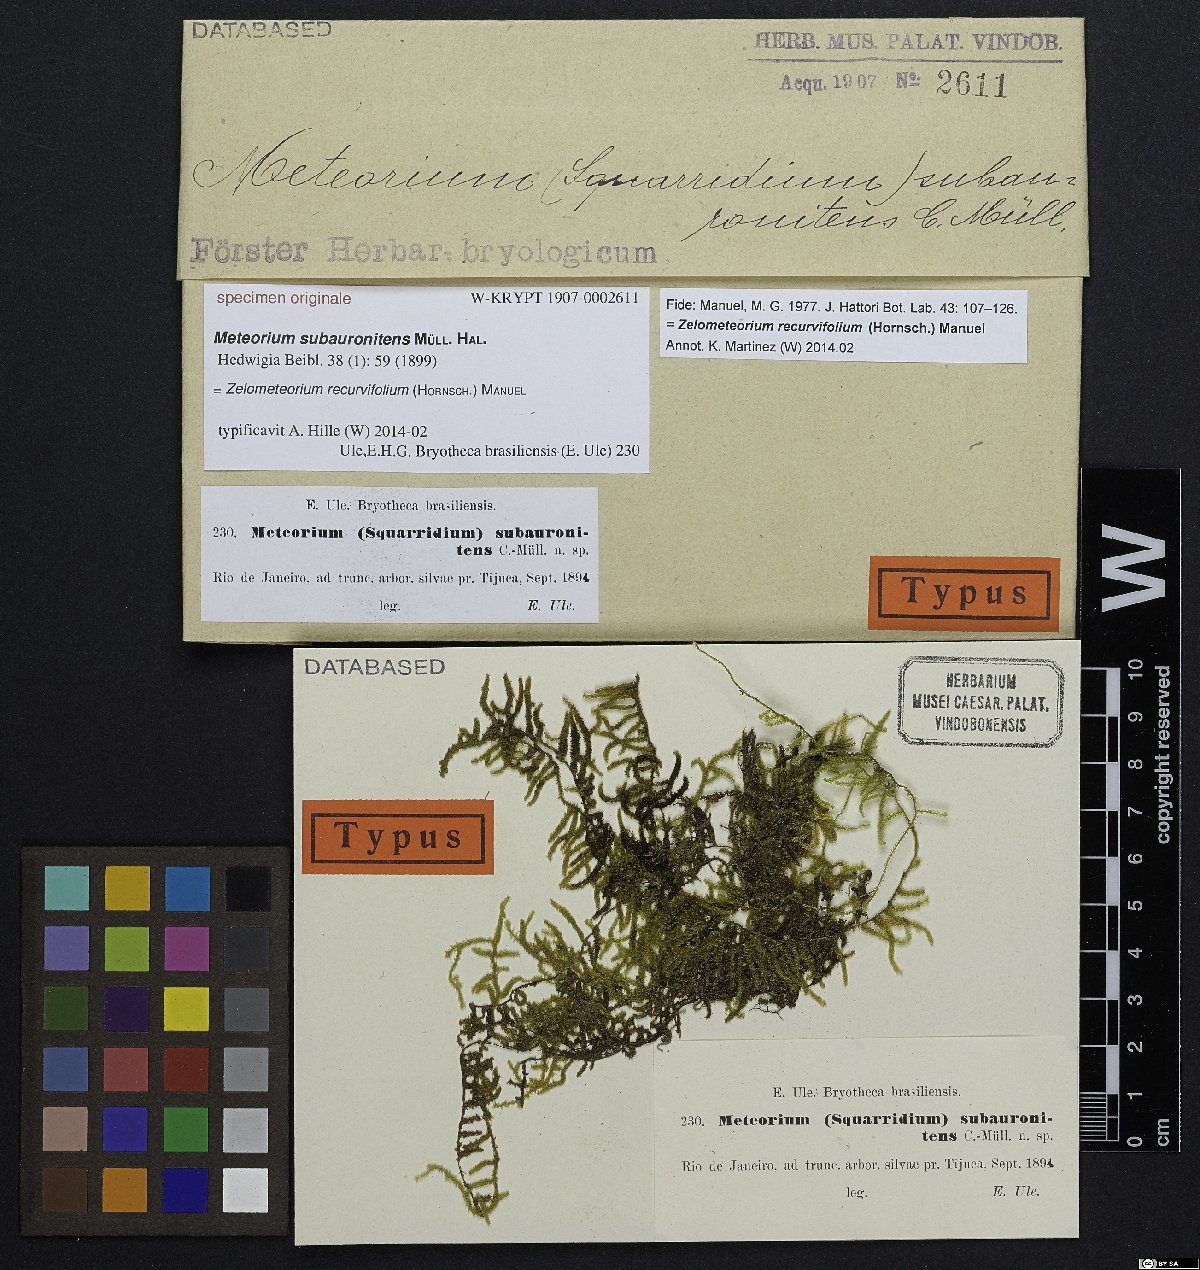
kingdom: Plantae
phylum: Bryophyta
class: Bryopsida
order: Hypnales
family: Meteoriaceae
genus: Meteorium
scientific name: Meteorium
